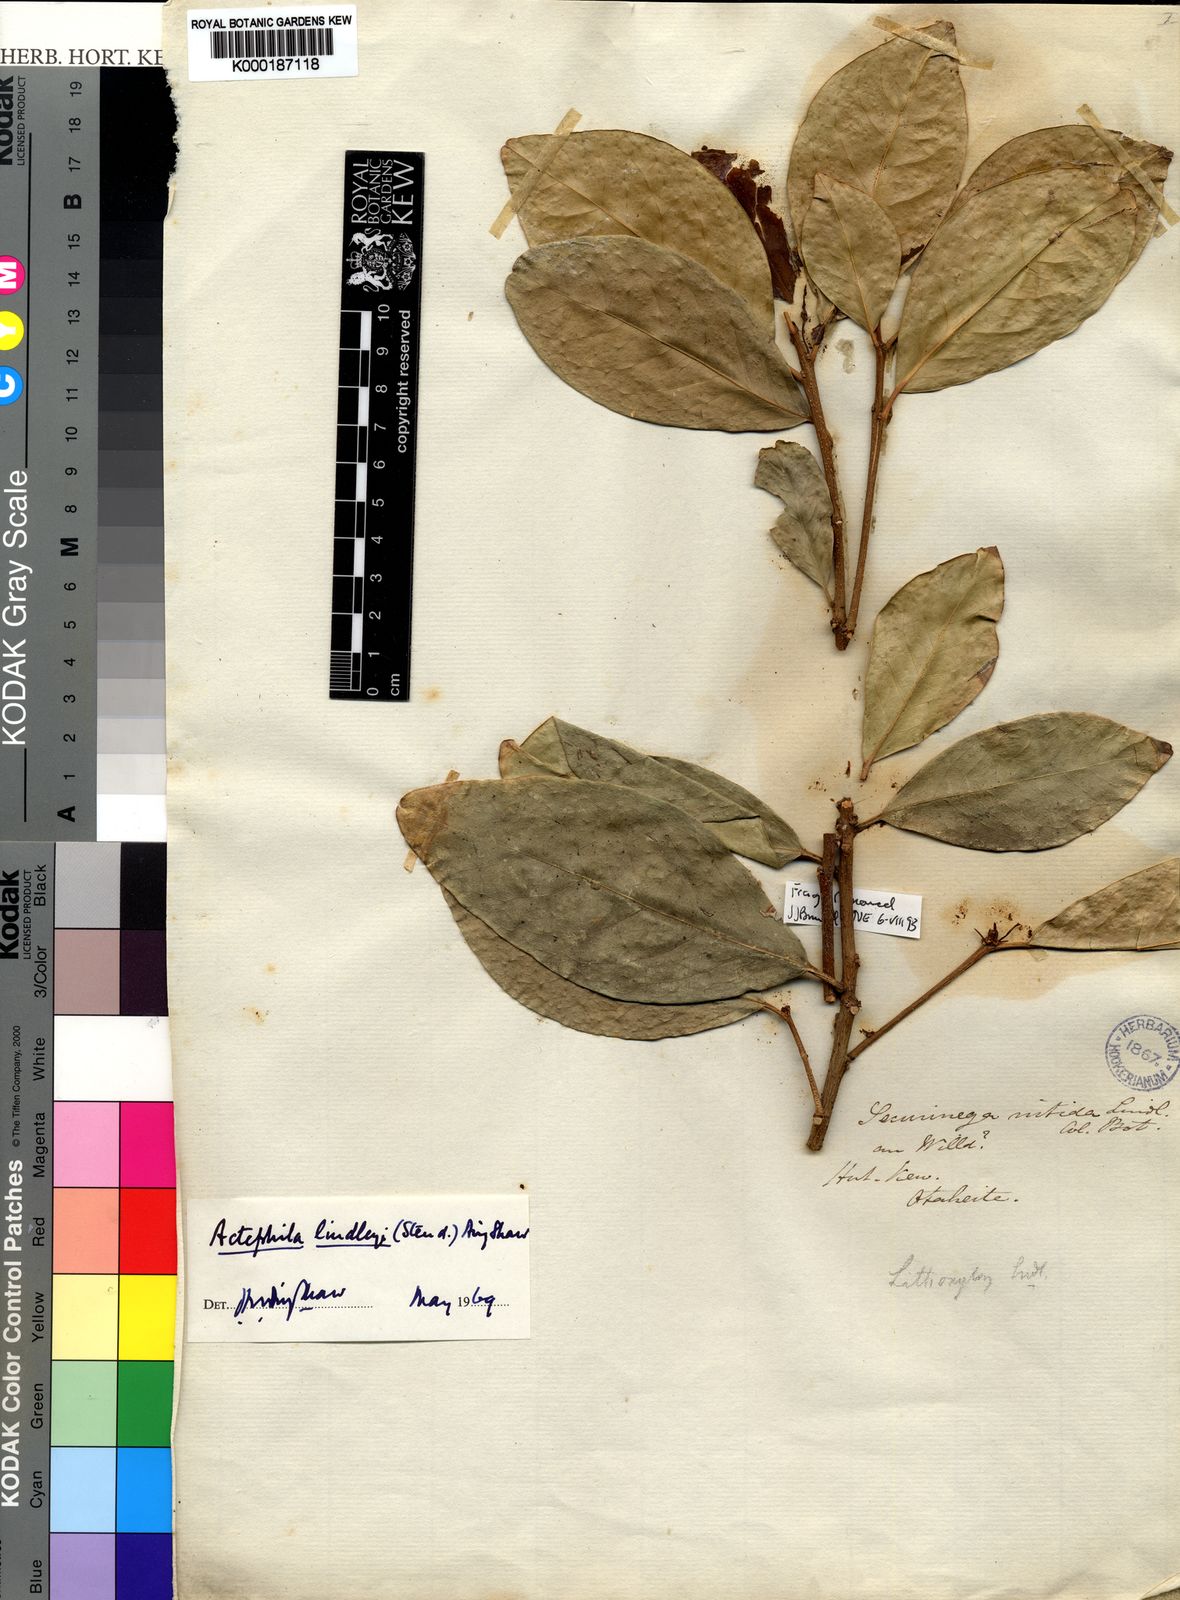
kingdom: Plantae
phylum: Tracheophyta
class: Magnoliopsida
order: Malpighiales
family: Phyllanthaceae
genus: Actephila
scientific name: Actephila lindleyi
